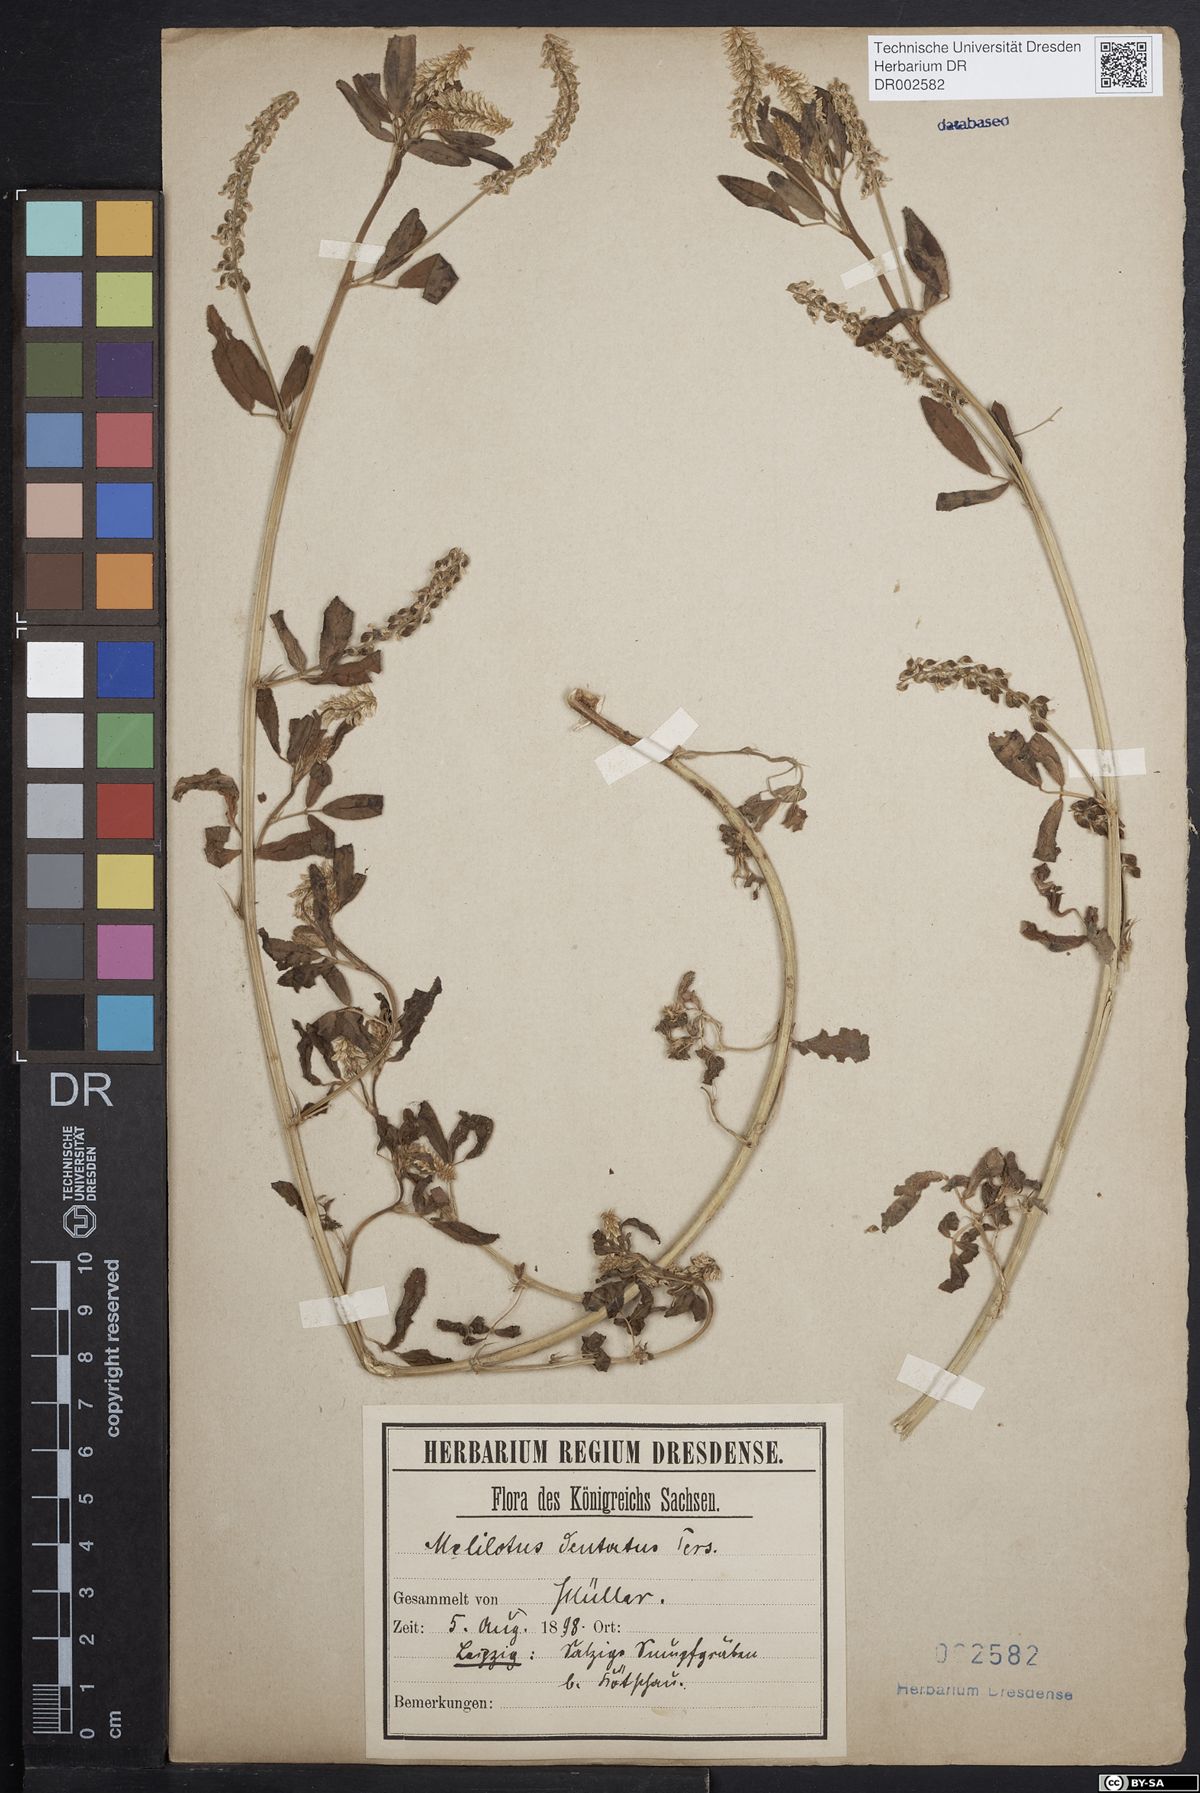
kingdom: Plantae
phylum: Tracheophyta
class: Magnoliopsida
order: Fabales
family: Fabaceae
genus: Melilotus
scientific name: Melilotus dentatus
